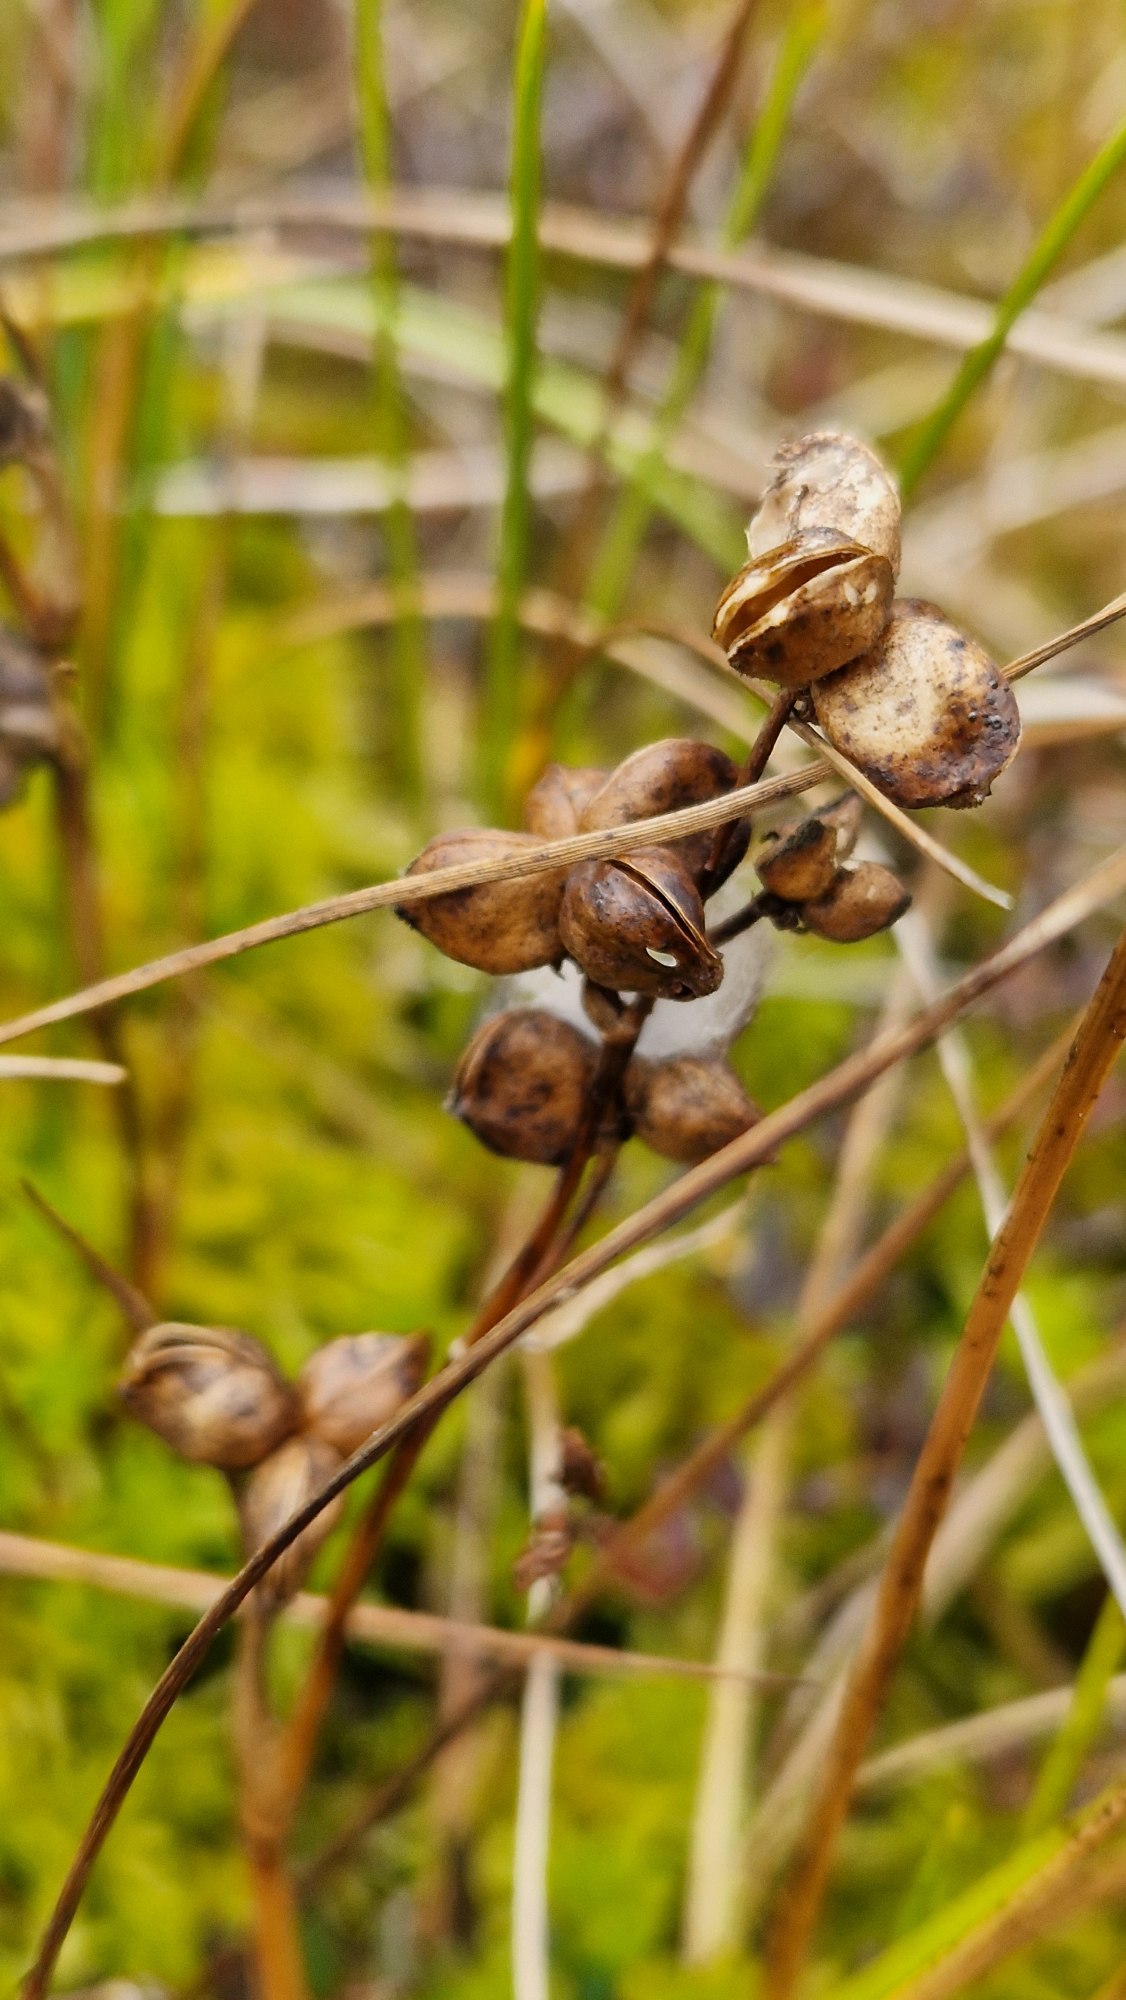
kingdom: Plantae
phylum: Tracheophyta
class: Liliopsida
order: Alismatales
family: Scheuchzeriaceae
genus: Scheuchzeria
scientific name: Scheuchzeria palustris
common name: Blomstersiv
